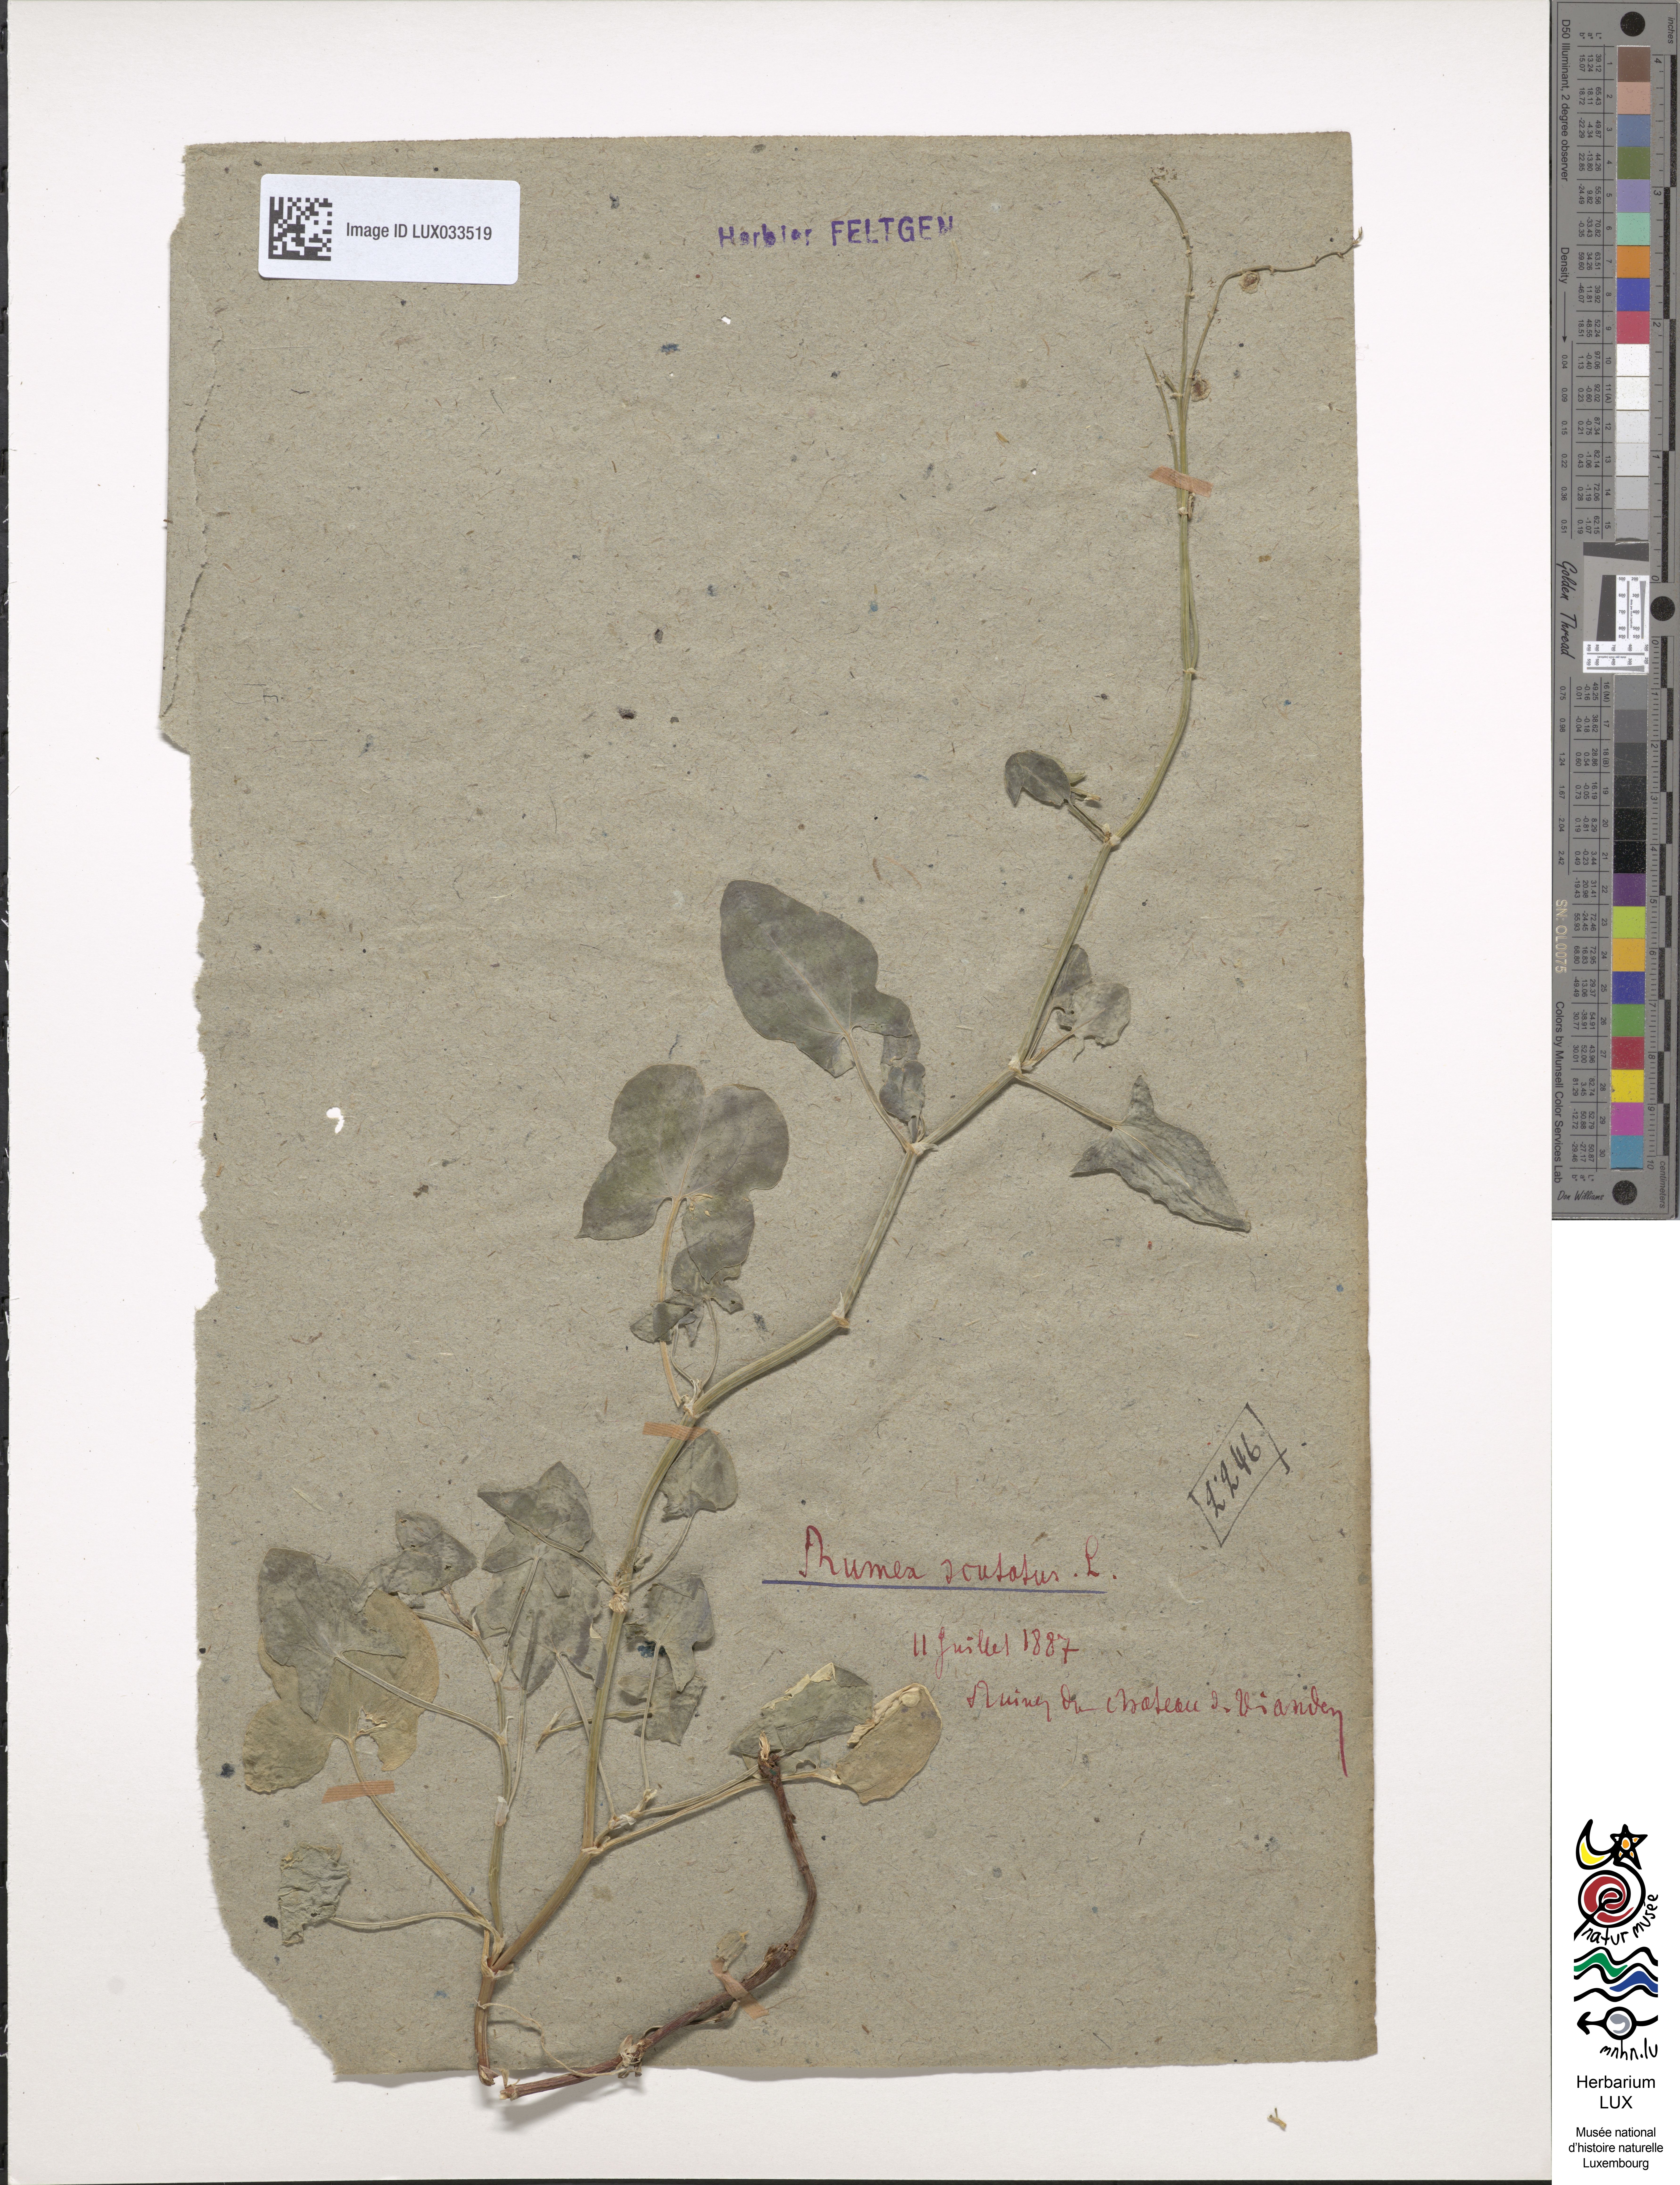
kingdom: Plantae
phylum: Tracheophyta
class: Magnoliopsida
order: Caryophyllales
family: Polygonaceae
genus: Rumex
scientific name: Rumex scutatus
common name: French sorrel
